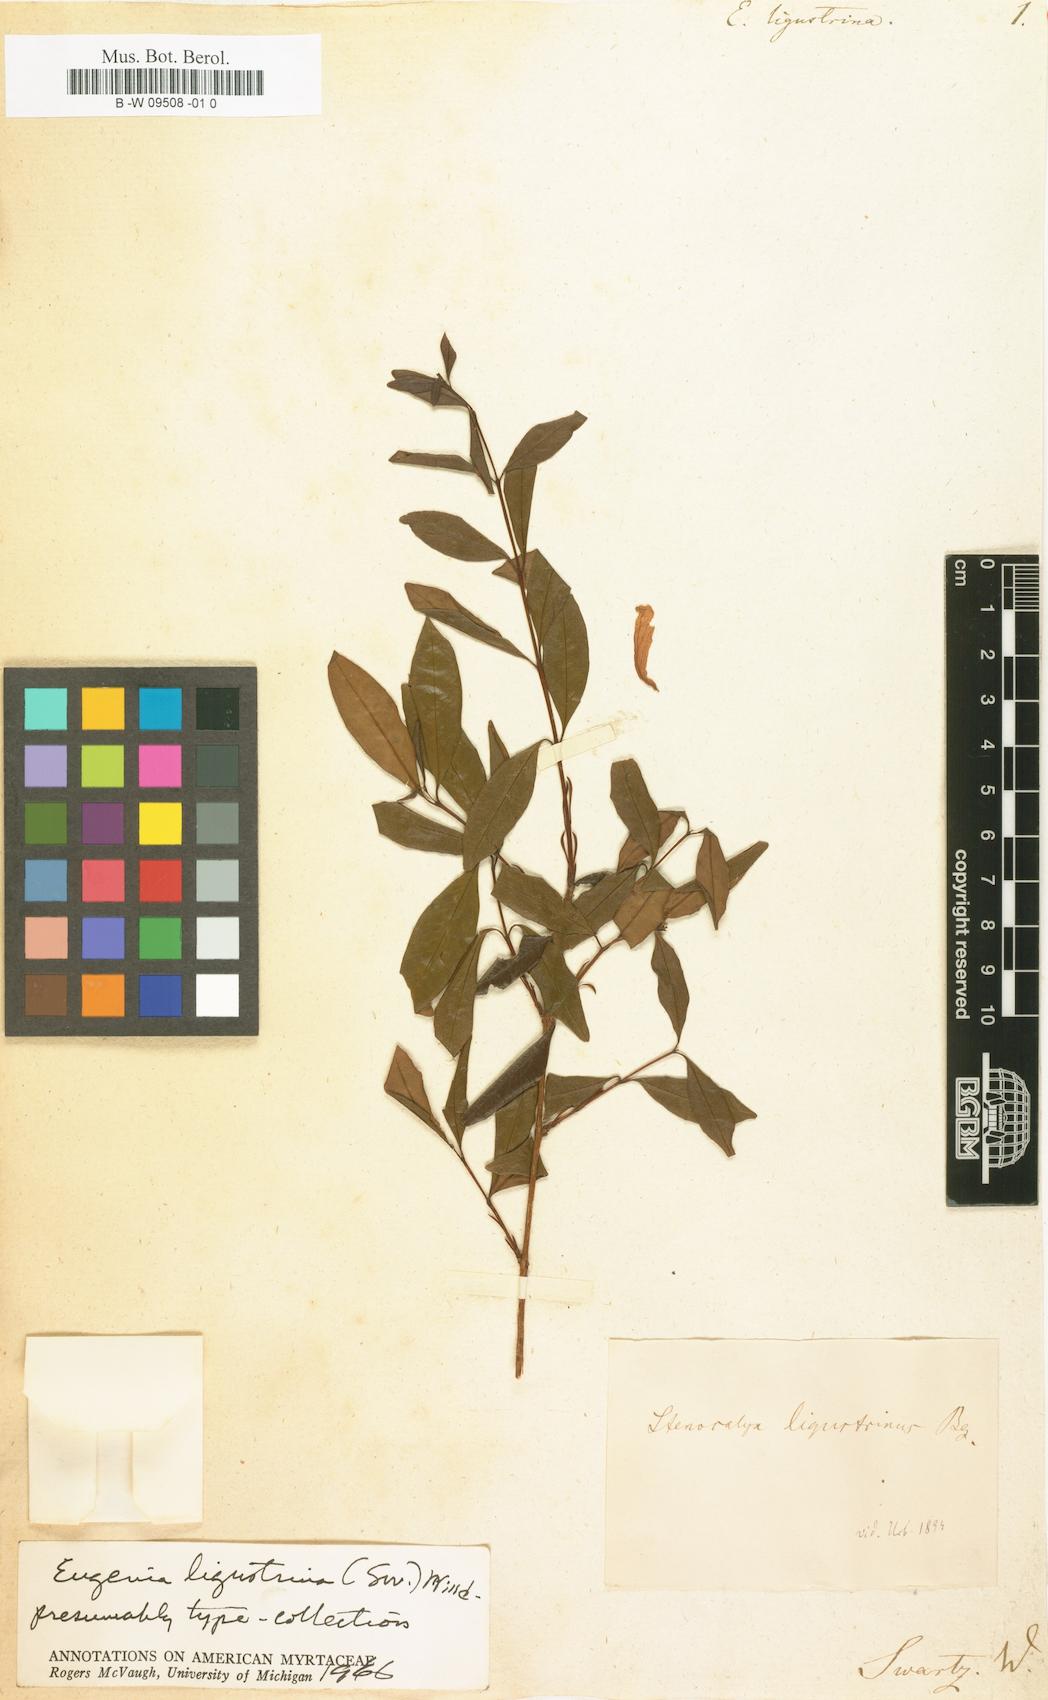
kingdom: Plantae
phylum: Tracheophyta
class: Magnoliopsida
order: Myrtales
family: Myrtaceae
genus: Eugenia
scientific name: Eugenia ligustrina
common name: Privet stopper
